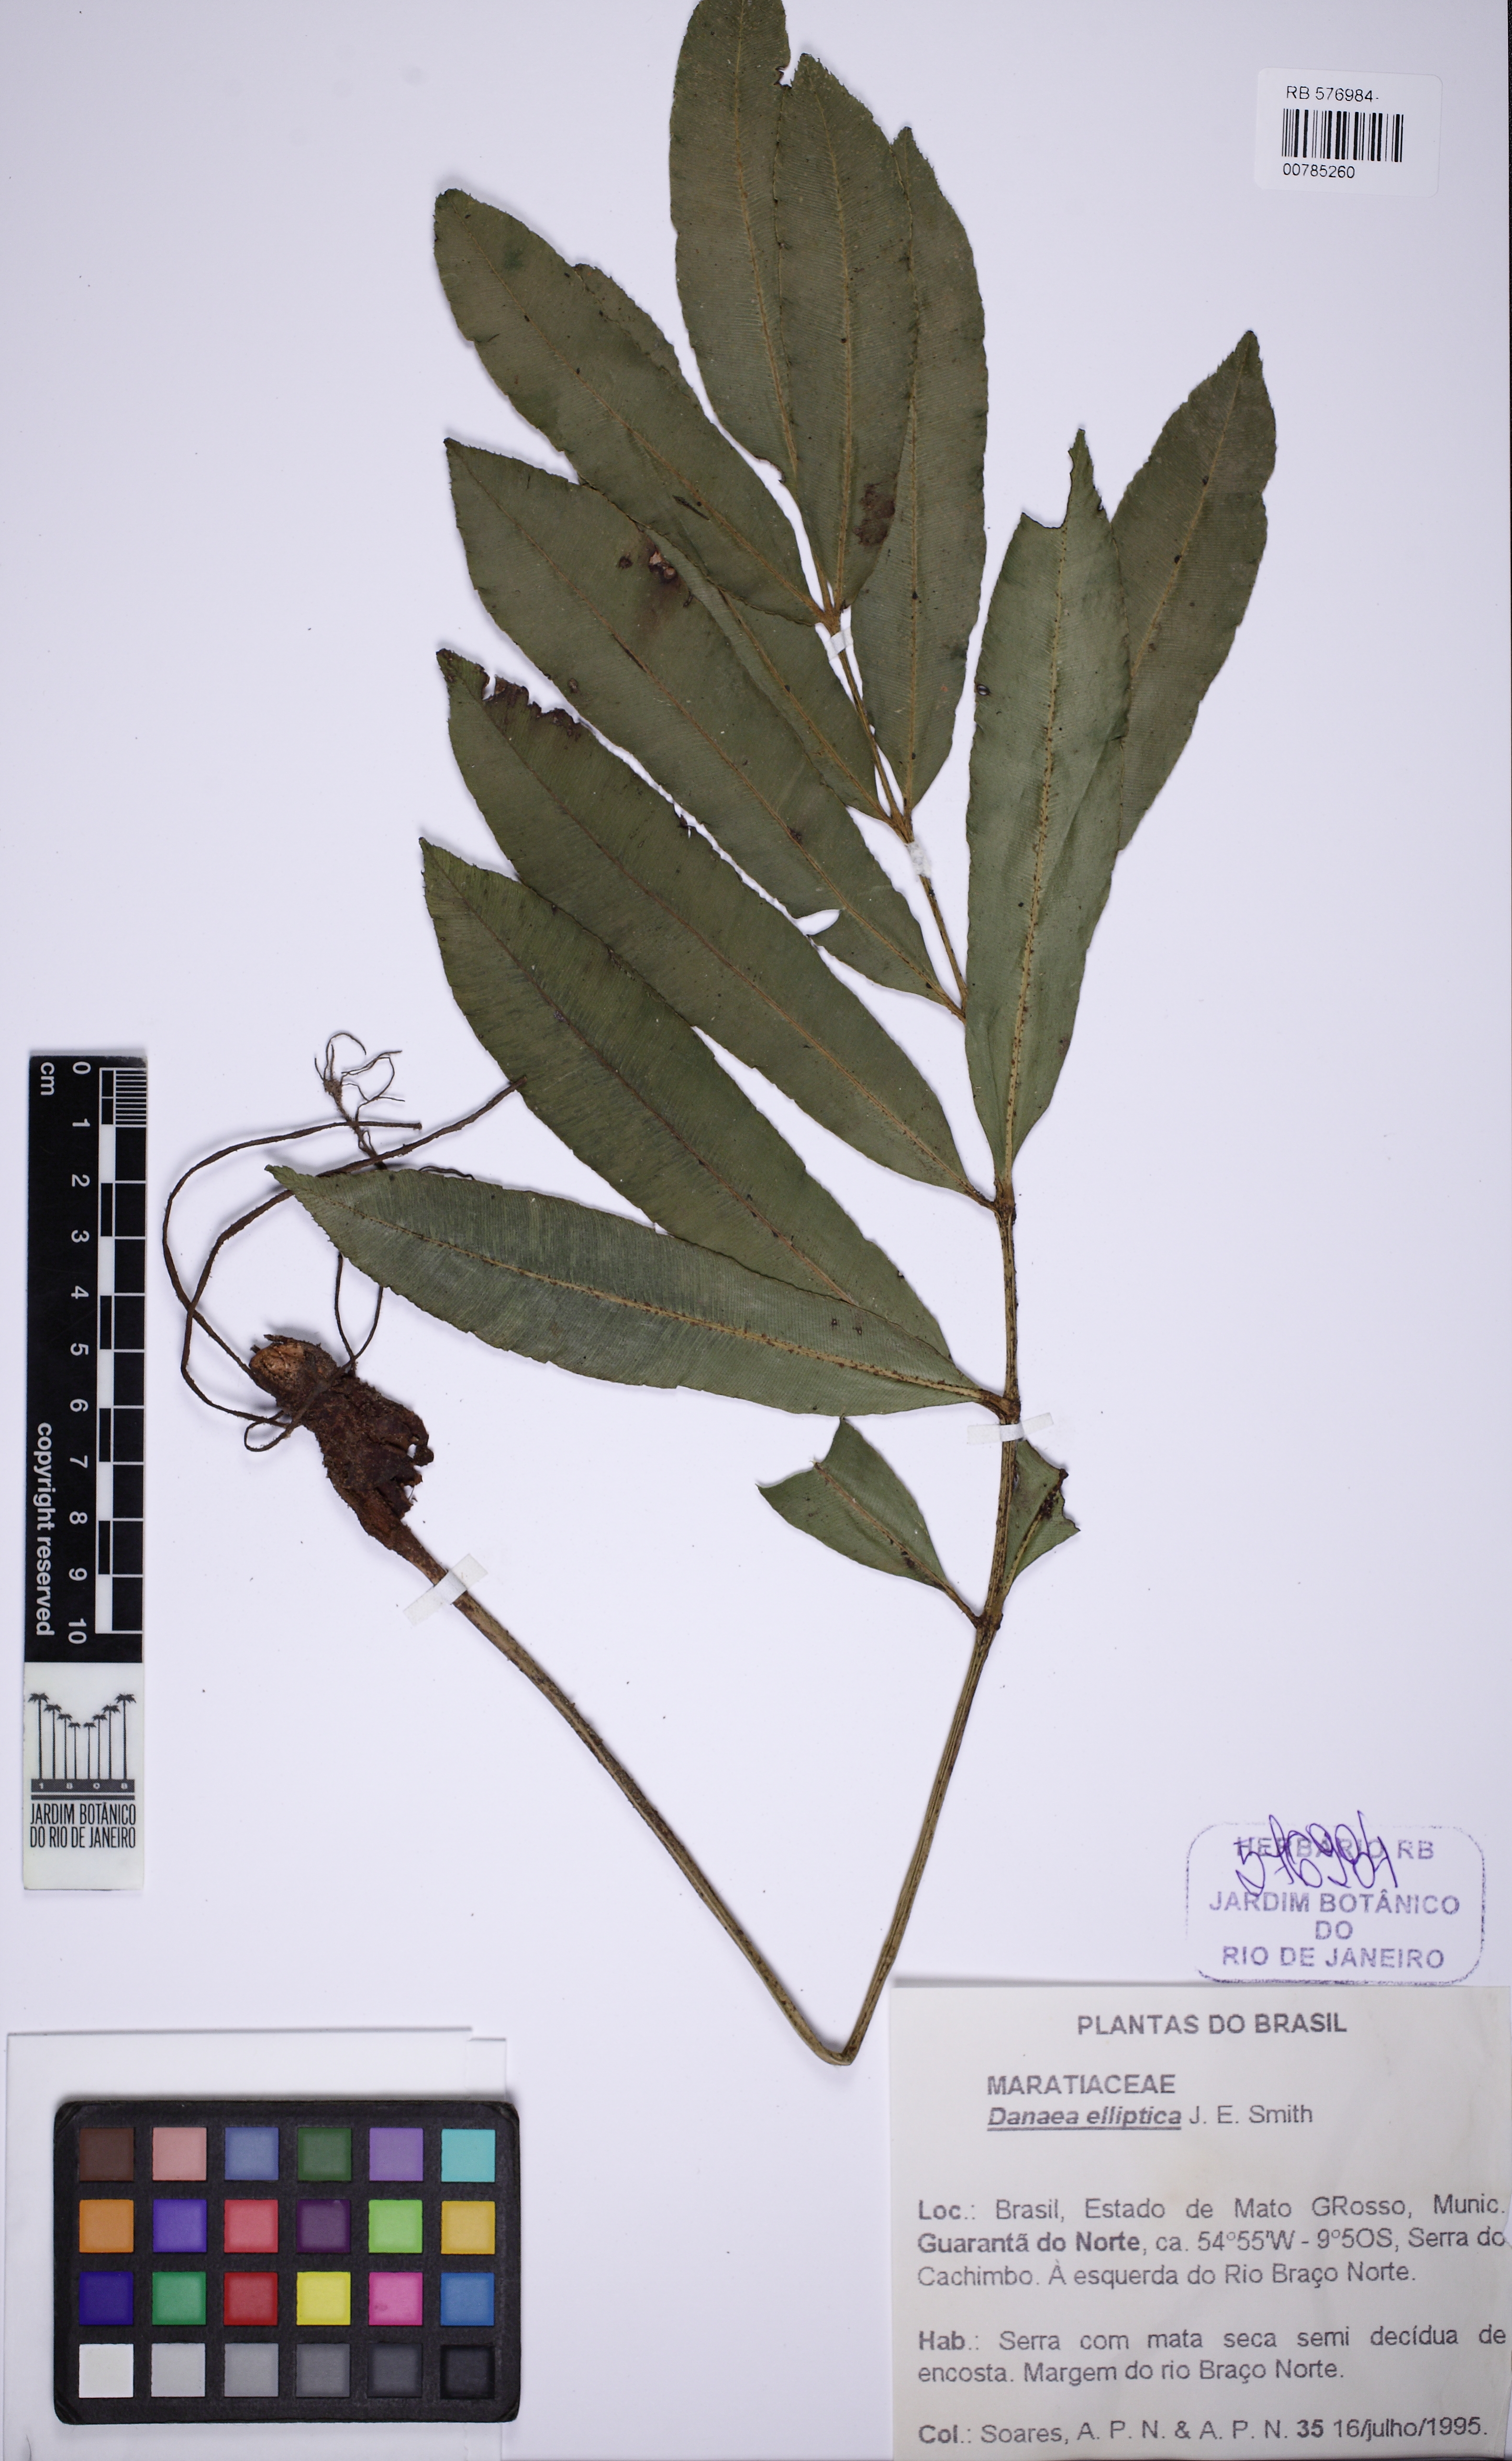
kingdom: Plantae
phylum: Tracheophyta
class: Polypodiopsida
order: Marattiales
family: Marattiaceae
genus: Danaea
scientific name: Danaea nodosa
